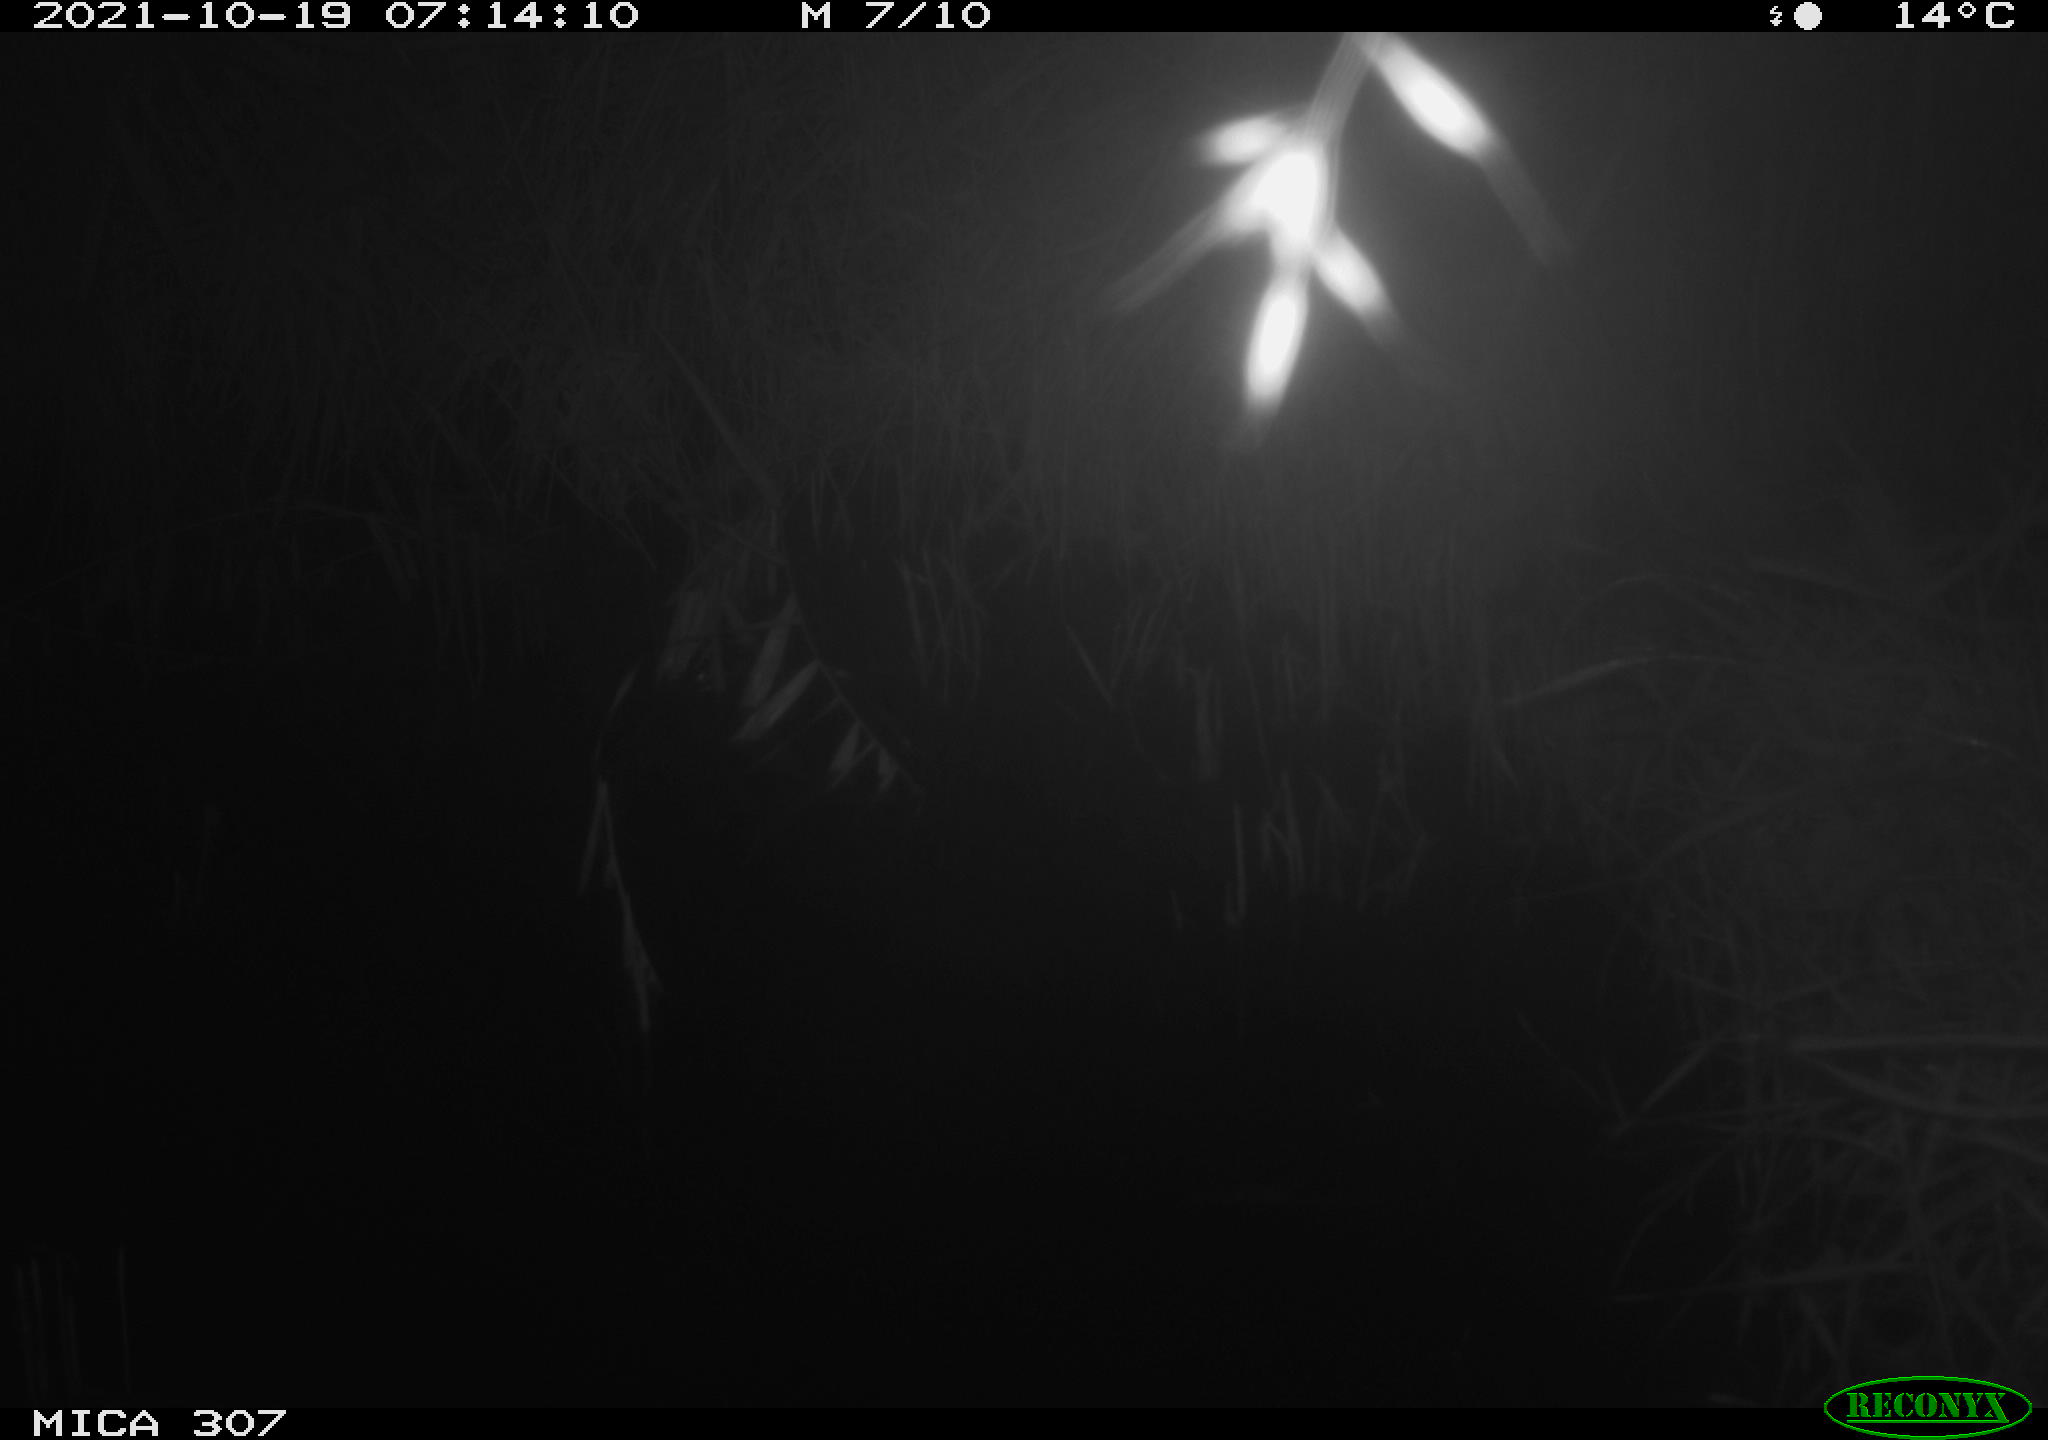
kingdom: Animalia
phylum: Chordata
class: Mammalia
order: Rodentia
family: Muridae
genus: Rattus
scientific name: Rattus norvegicus
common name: Brown rat
